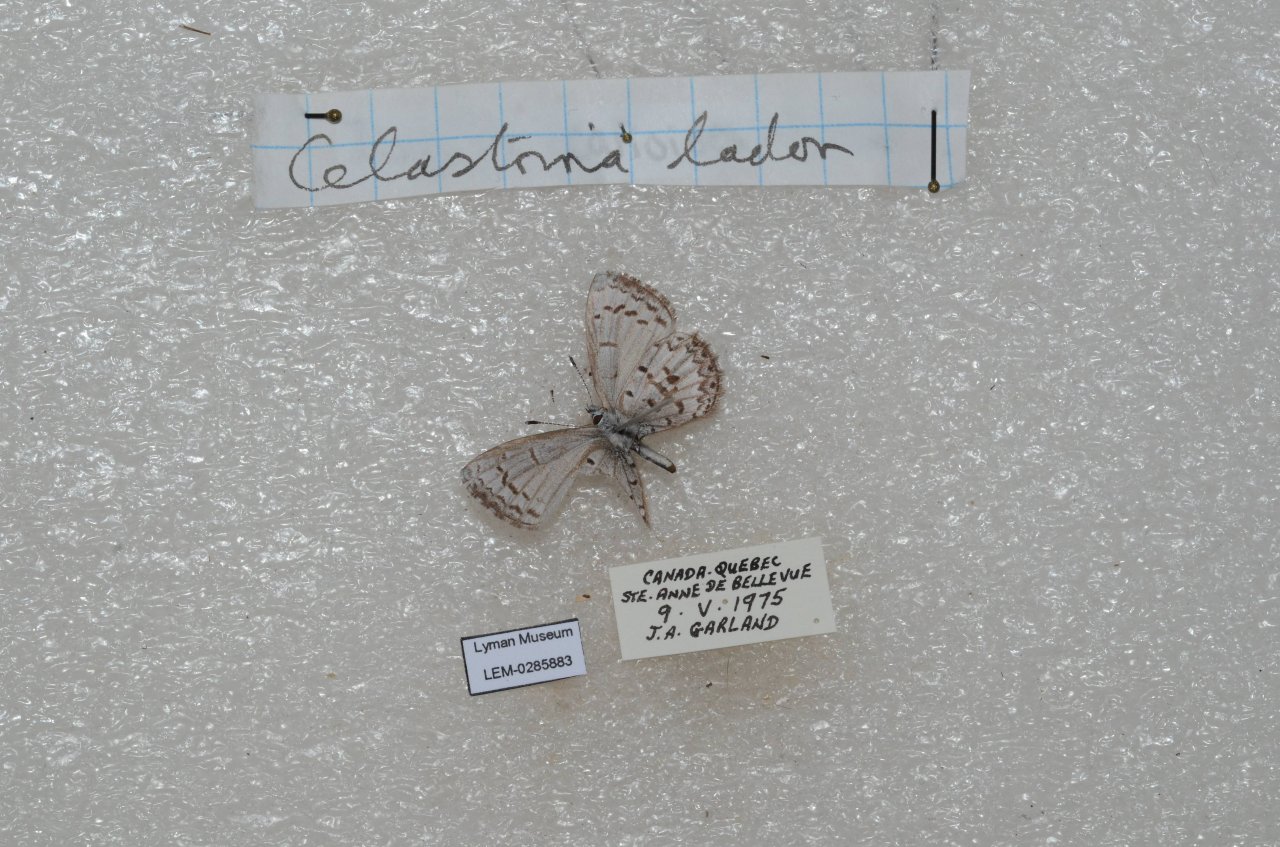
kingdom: Animalia
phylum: Arthropoda
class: Insecta
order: Lepidoptera
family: Lycaenidae
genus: Celastrina
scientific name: Celastrina lucia
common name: Northern Spring Azure
